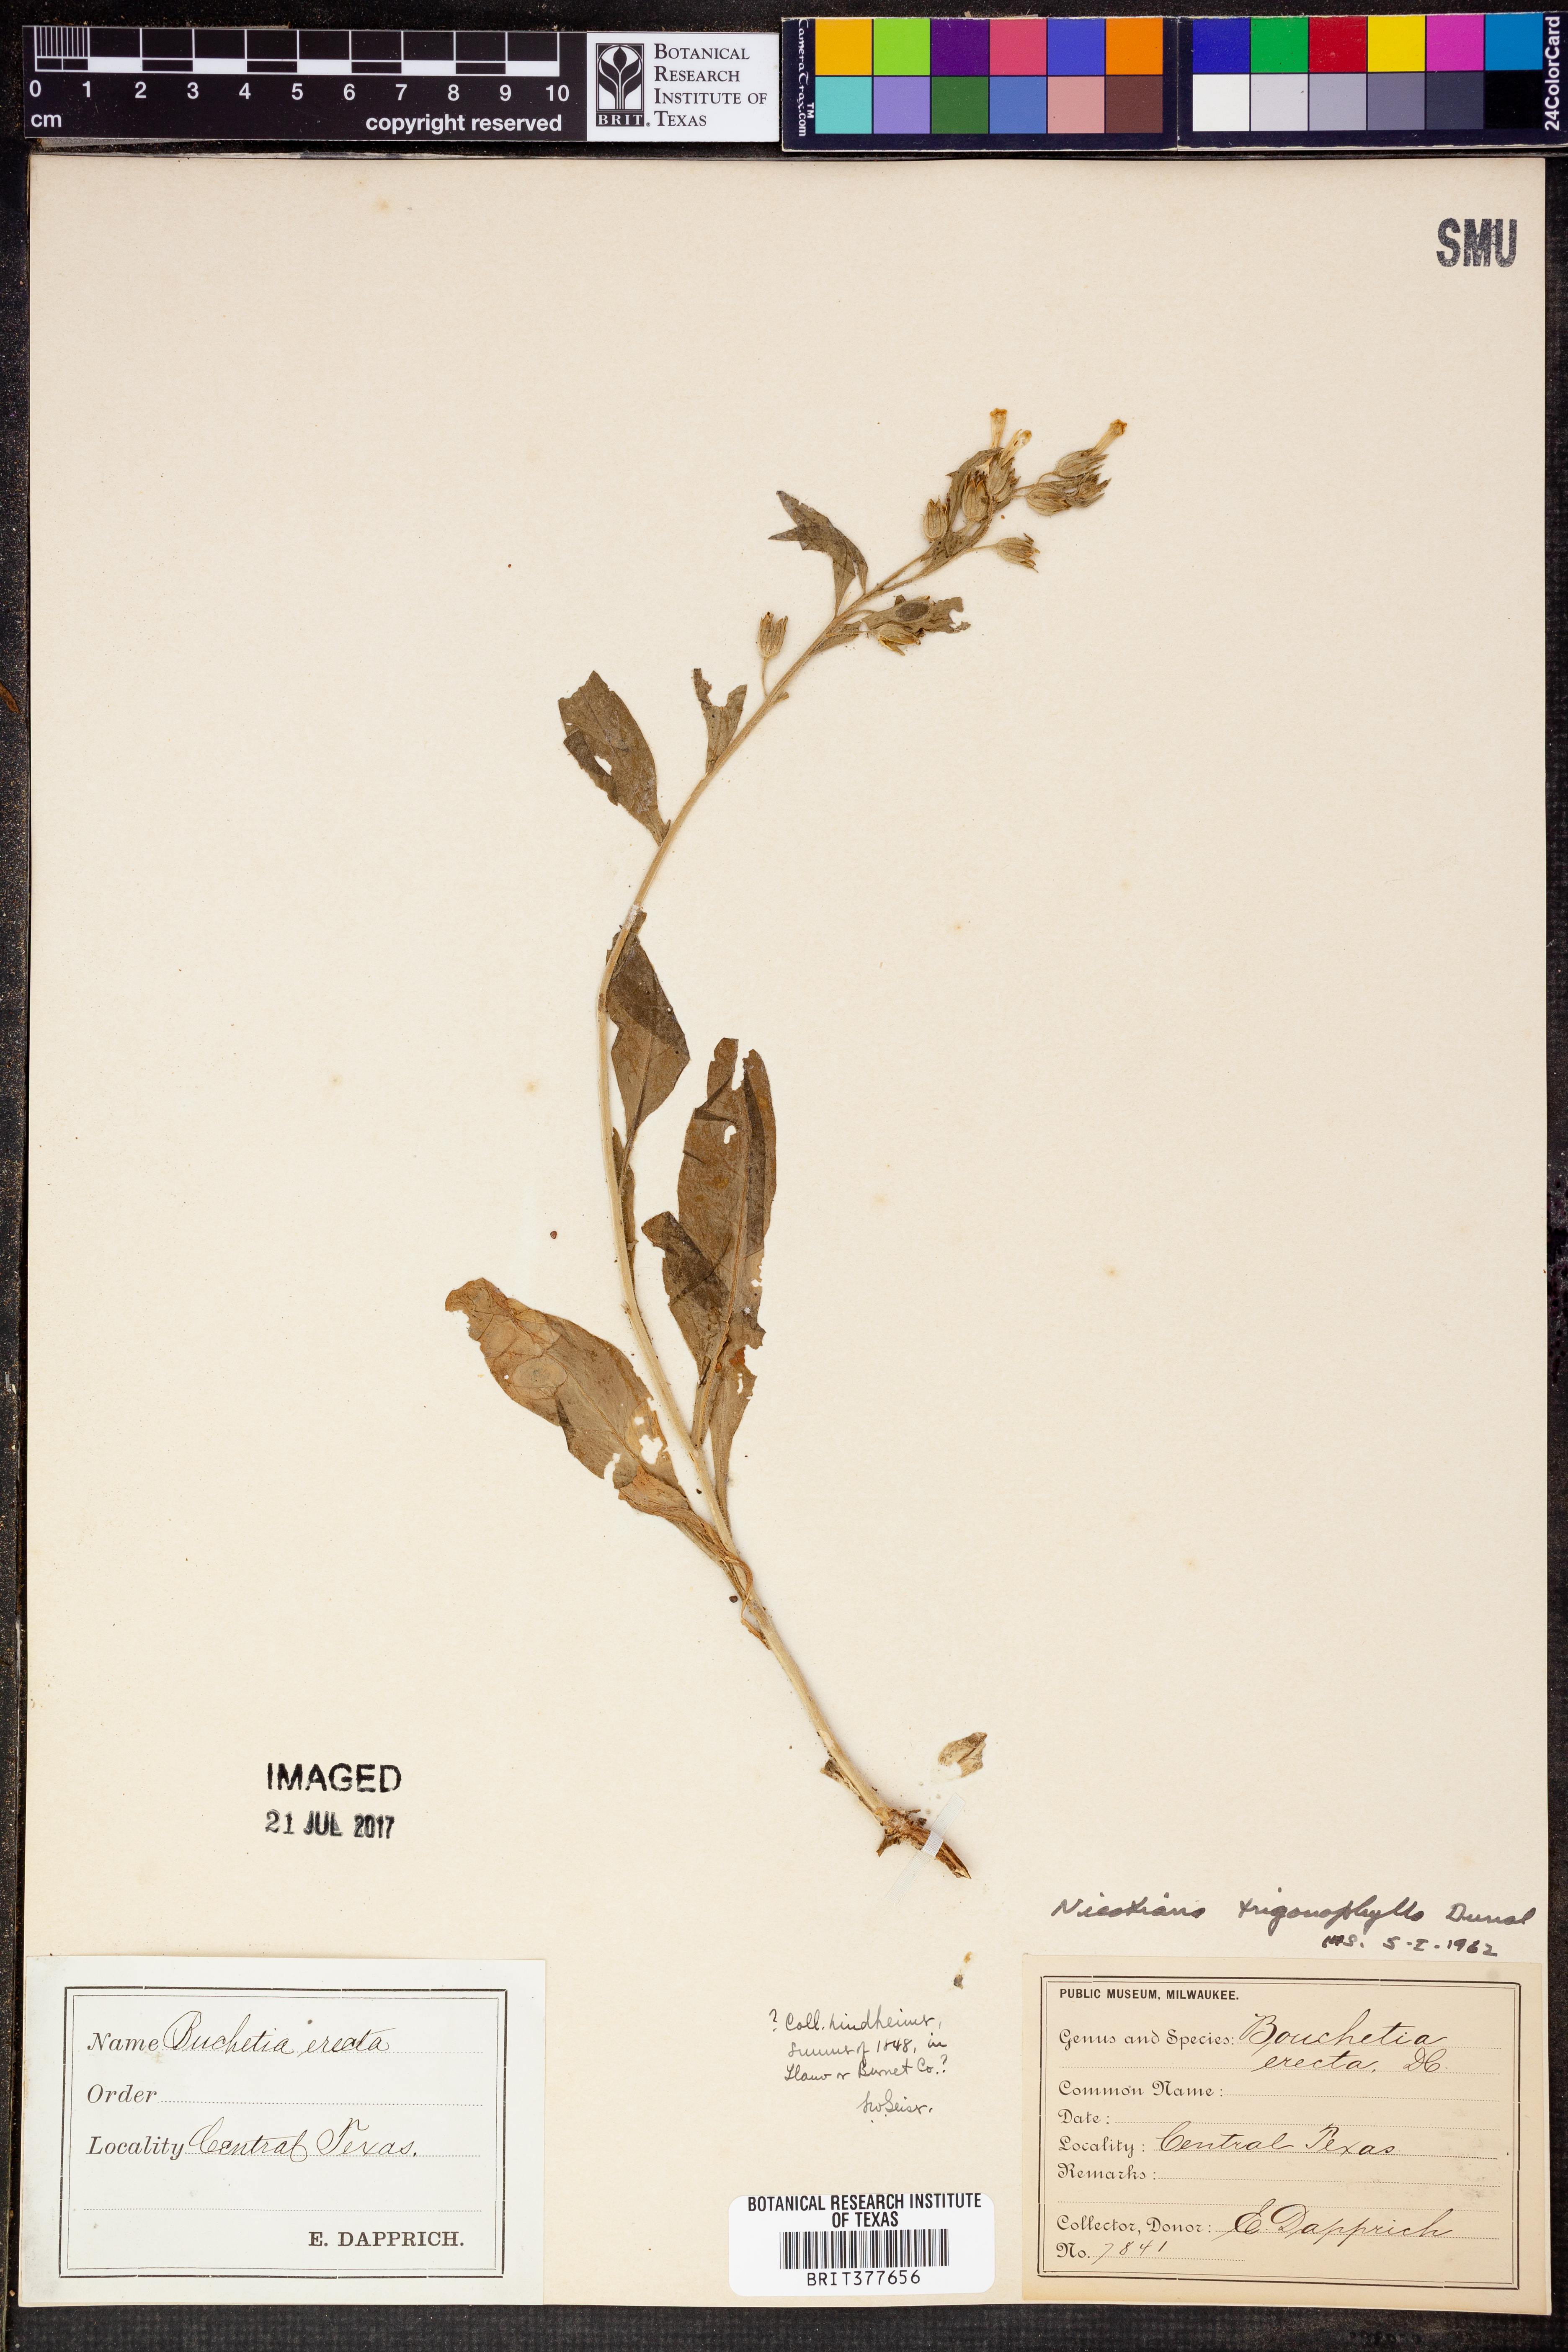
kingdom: Plantae
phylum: Tracheophyta
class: Magnoliopsida
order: Solanales
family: Solanaceae
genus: Nicotiana
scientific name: Nicotiana obtusifolia
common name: Desert tobacco
